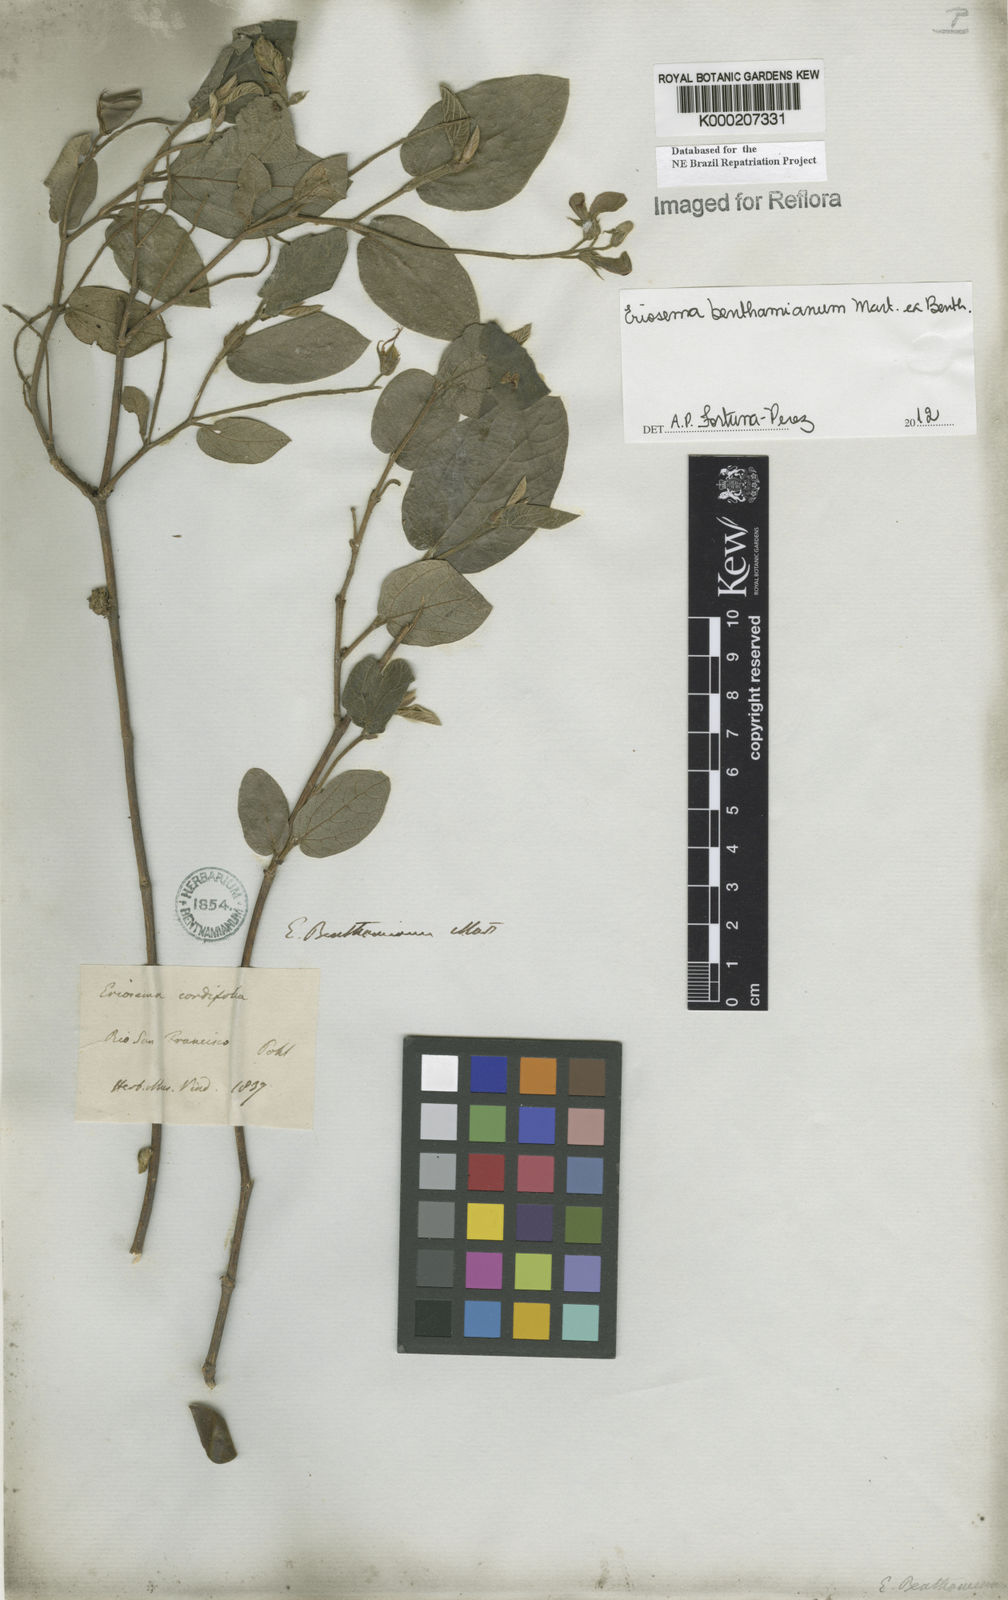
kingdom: Plantae
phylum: Tracheophyta
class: Magnoliopsida
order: Fabales
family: Fabaceae
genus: Eriosema
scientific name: Eriosema benthamianum
